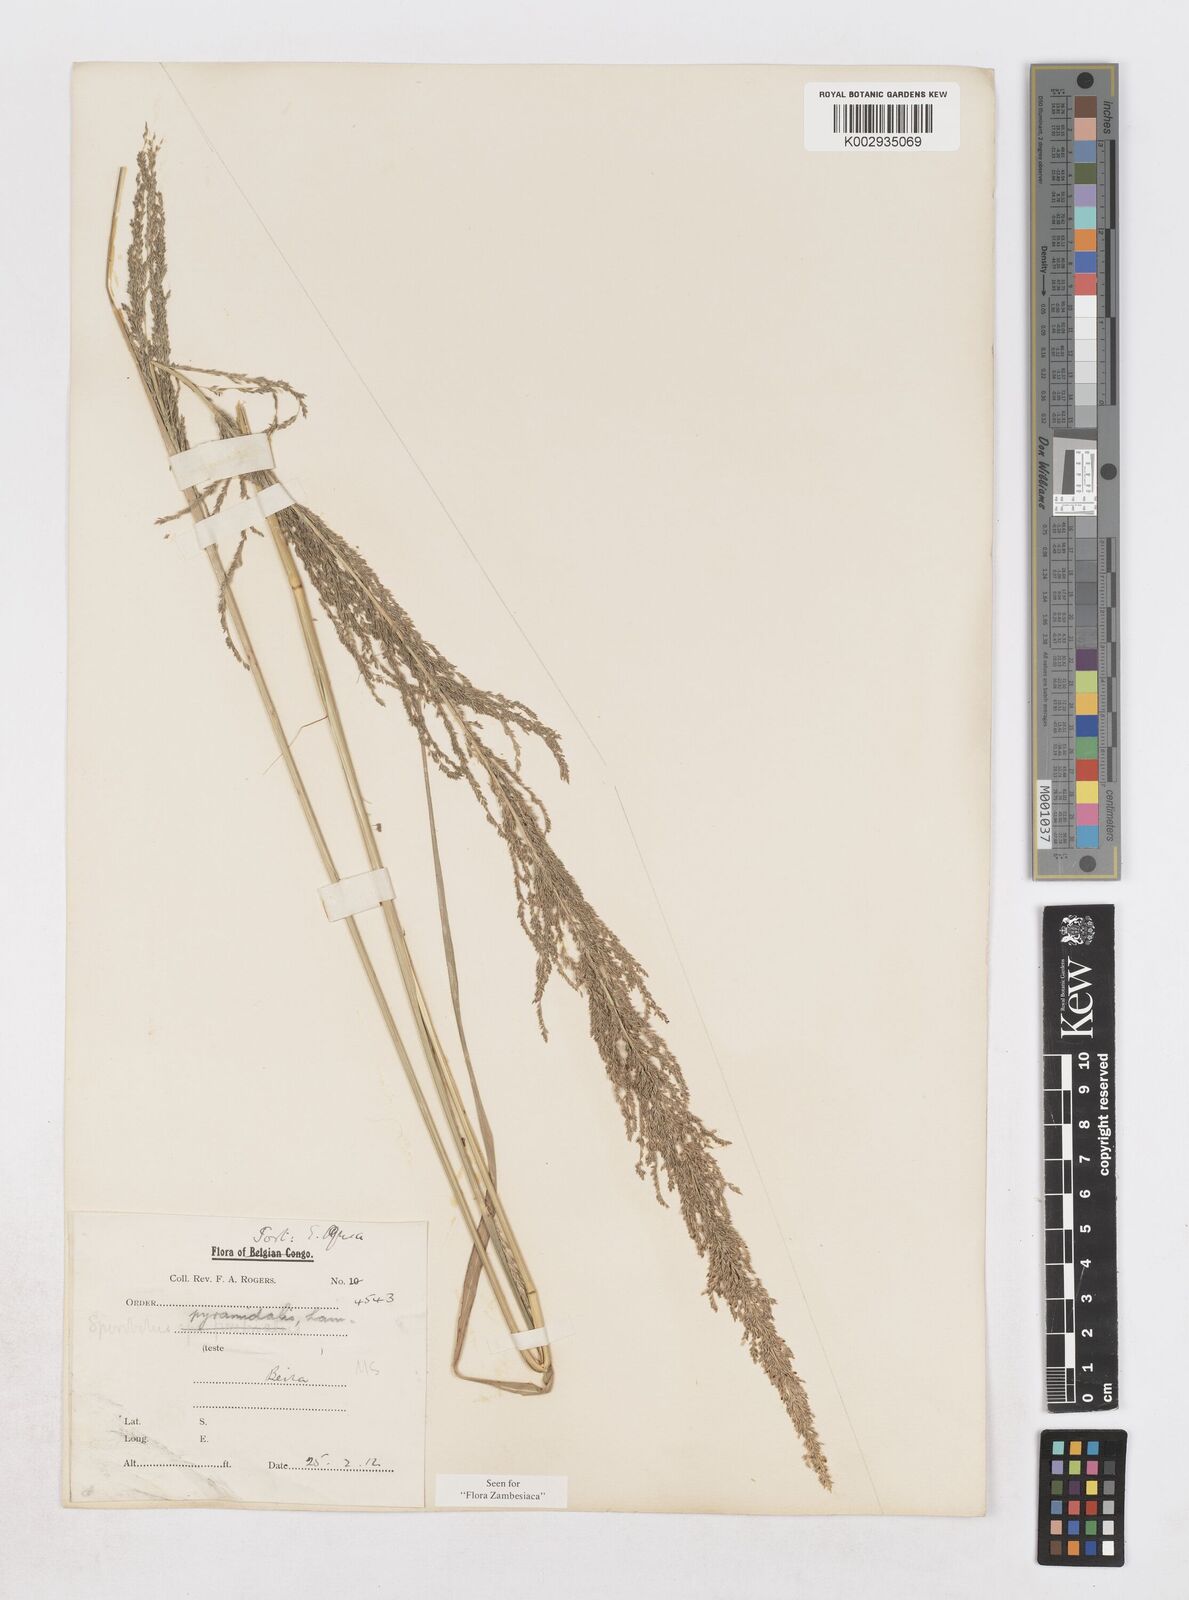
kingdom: Plantae
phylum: Tracheophyta
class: Liliopsida
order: Poales
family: Poaceae
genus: Sporobolus
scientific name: Sporobolus pyramidalis
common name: West indian dropseed
